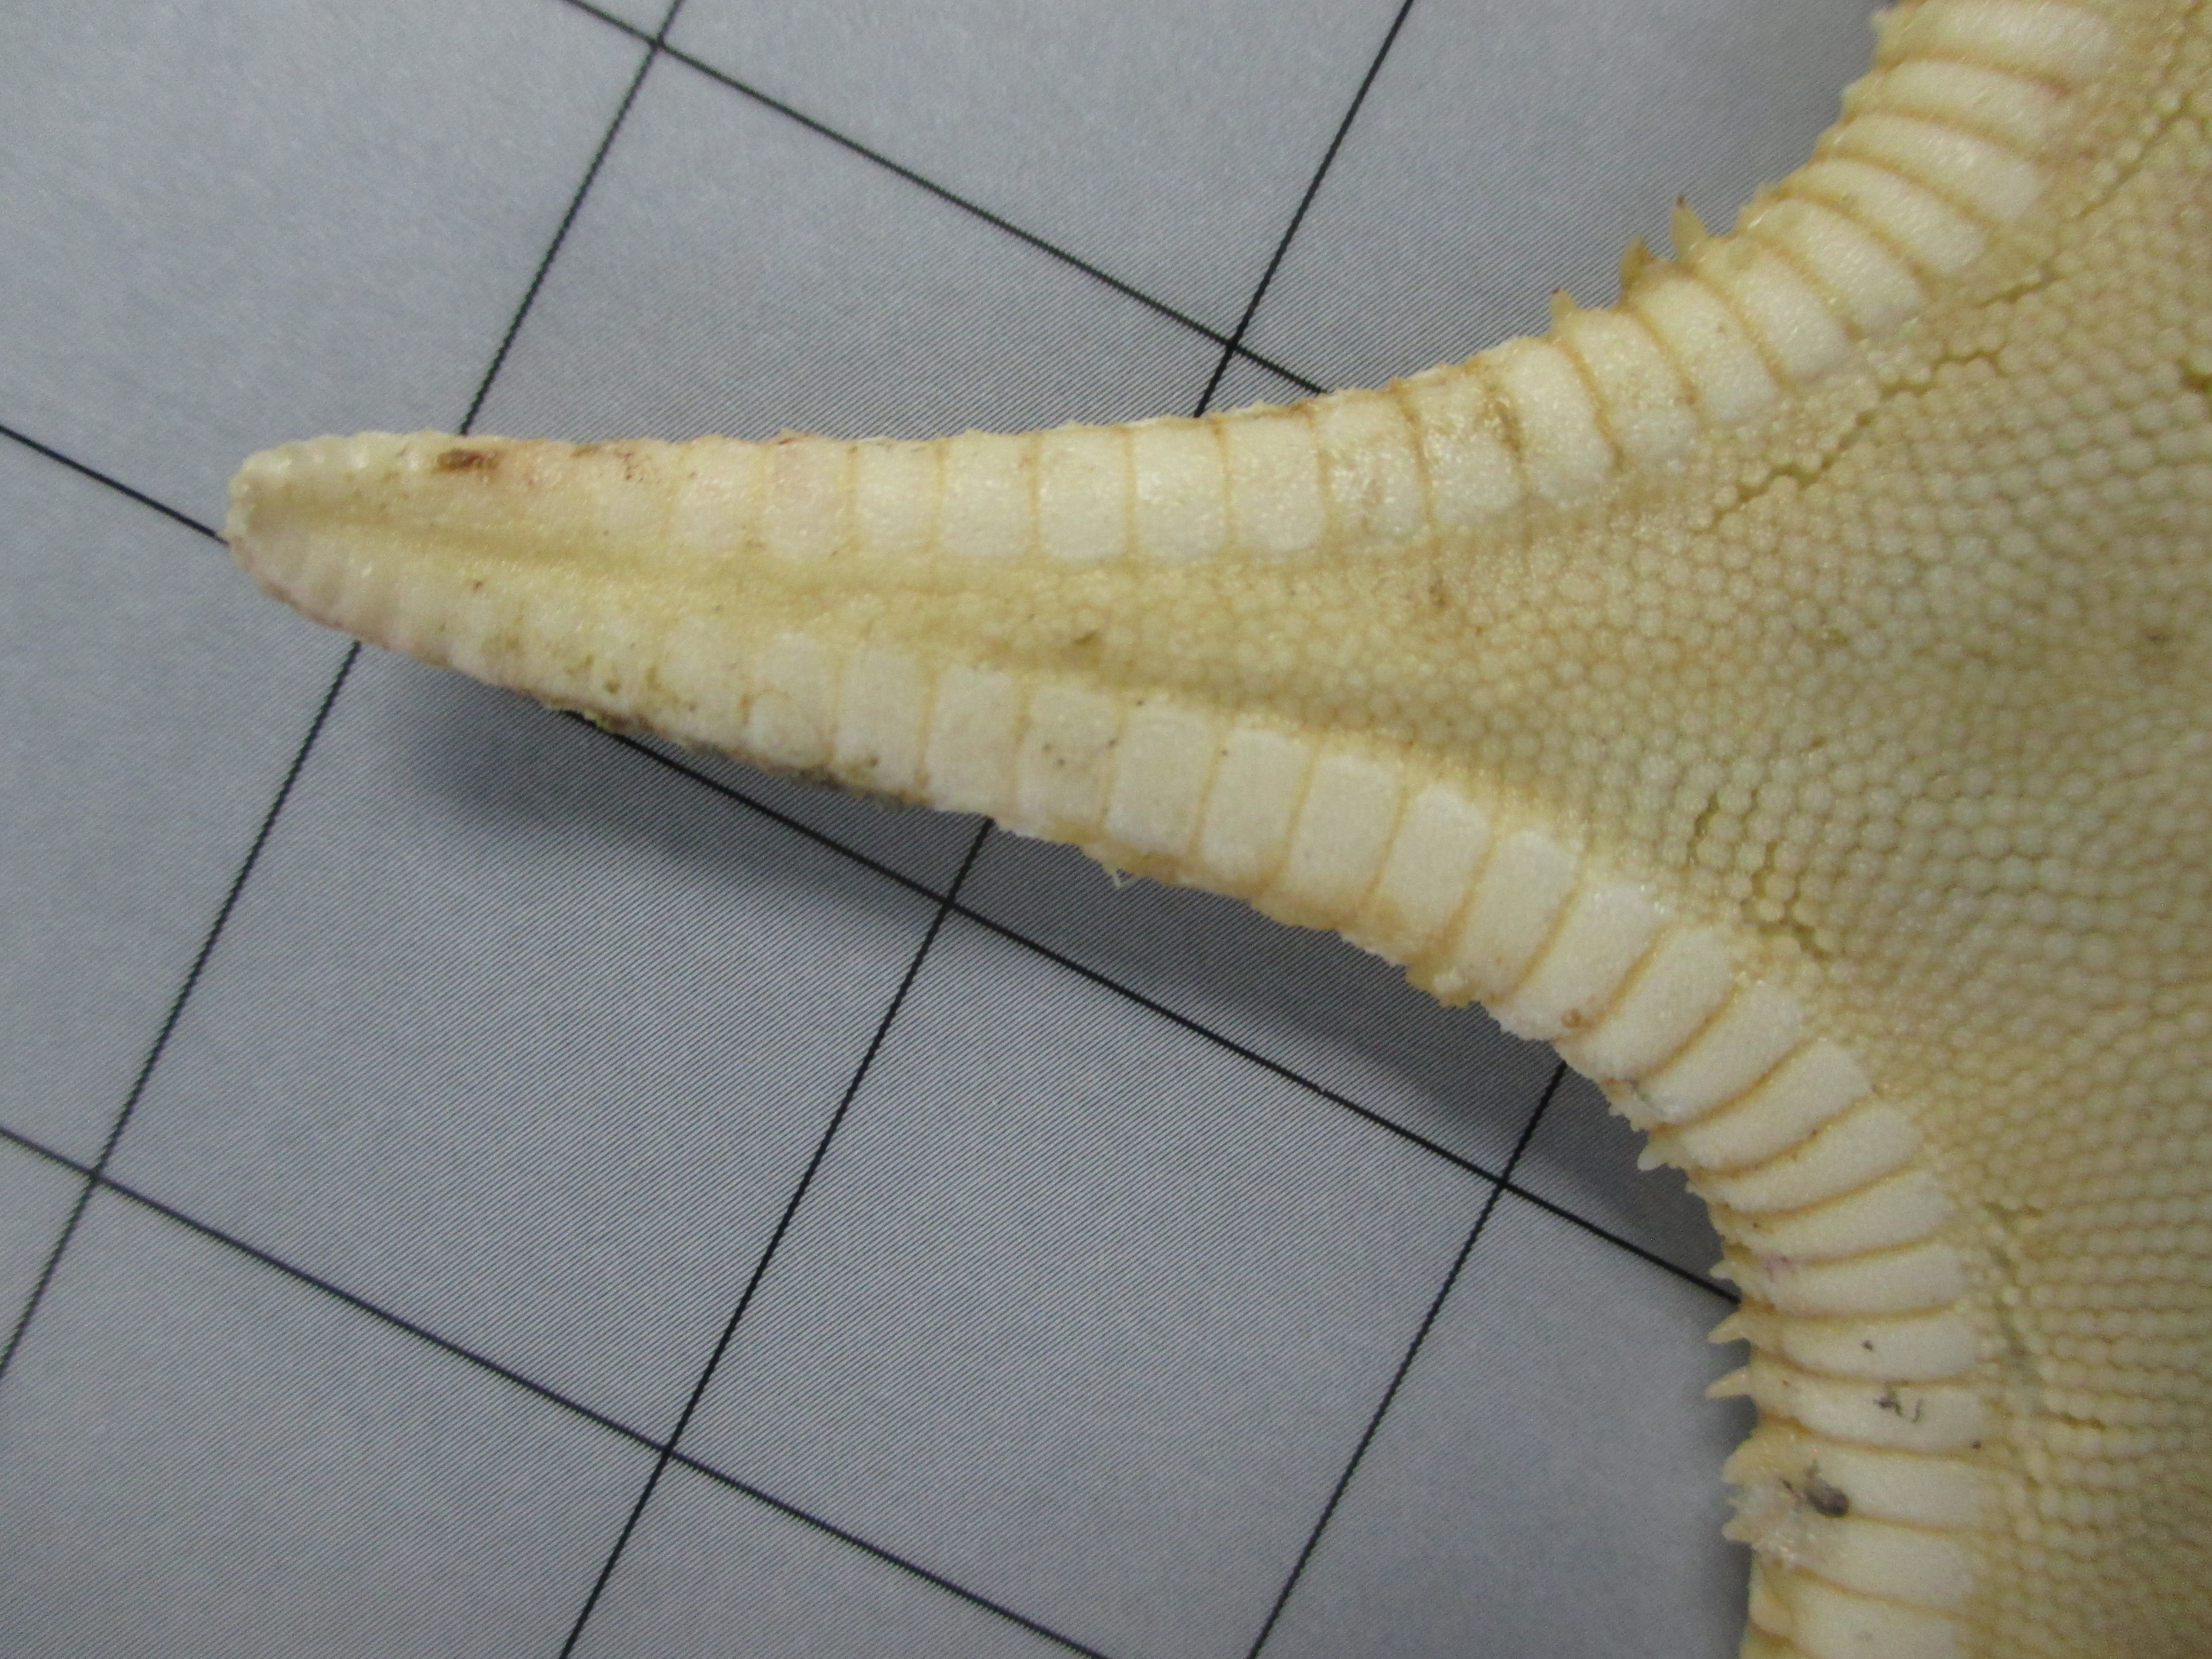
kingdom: Animalia
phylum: Echinodermata
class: Asteroidea
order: Paxillosida
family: Astropectinidae
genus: Plutonaster
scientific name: Plutonaster intermedius
